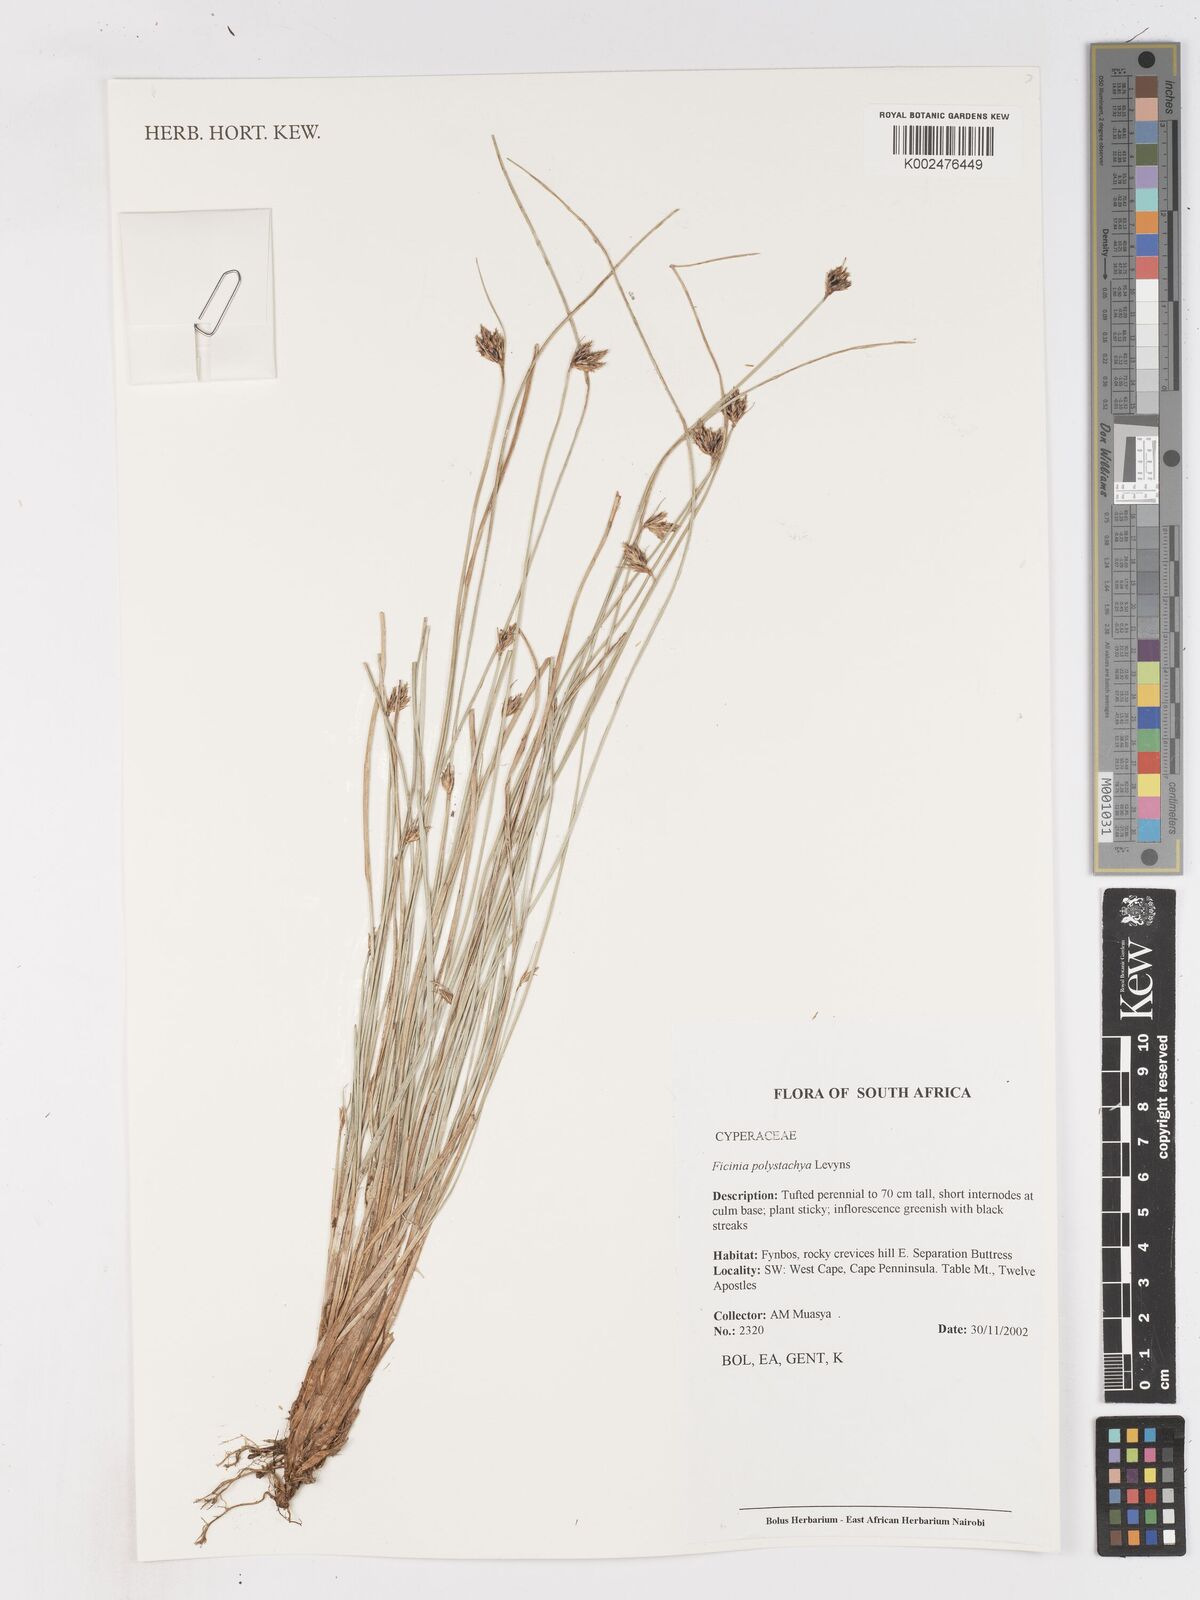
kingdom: Plantae
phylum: Tracheophyta
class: Liliopsida
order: Poales
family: Cyperaceae
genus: Ficinia
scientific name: Ficinia polystachya
